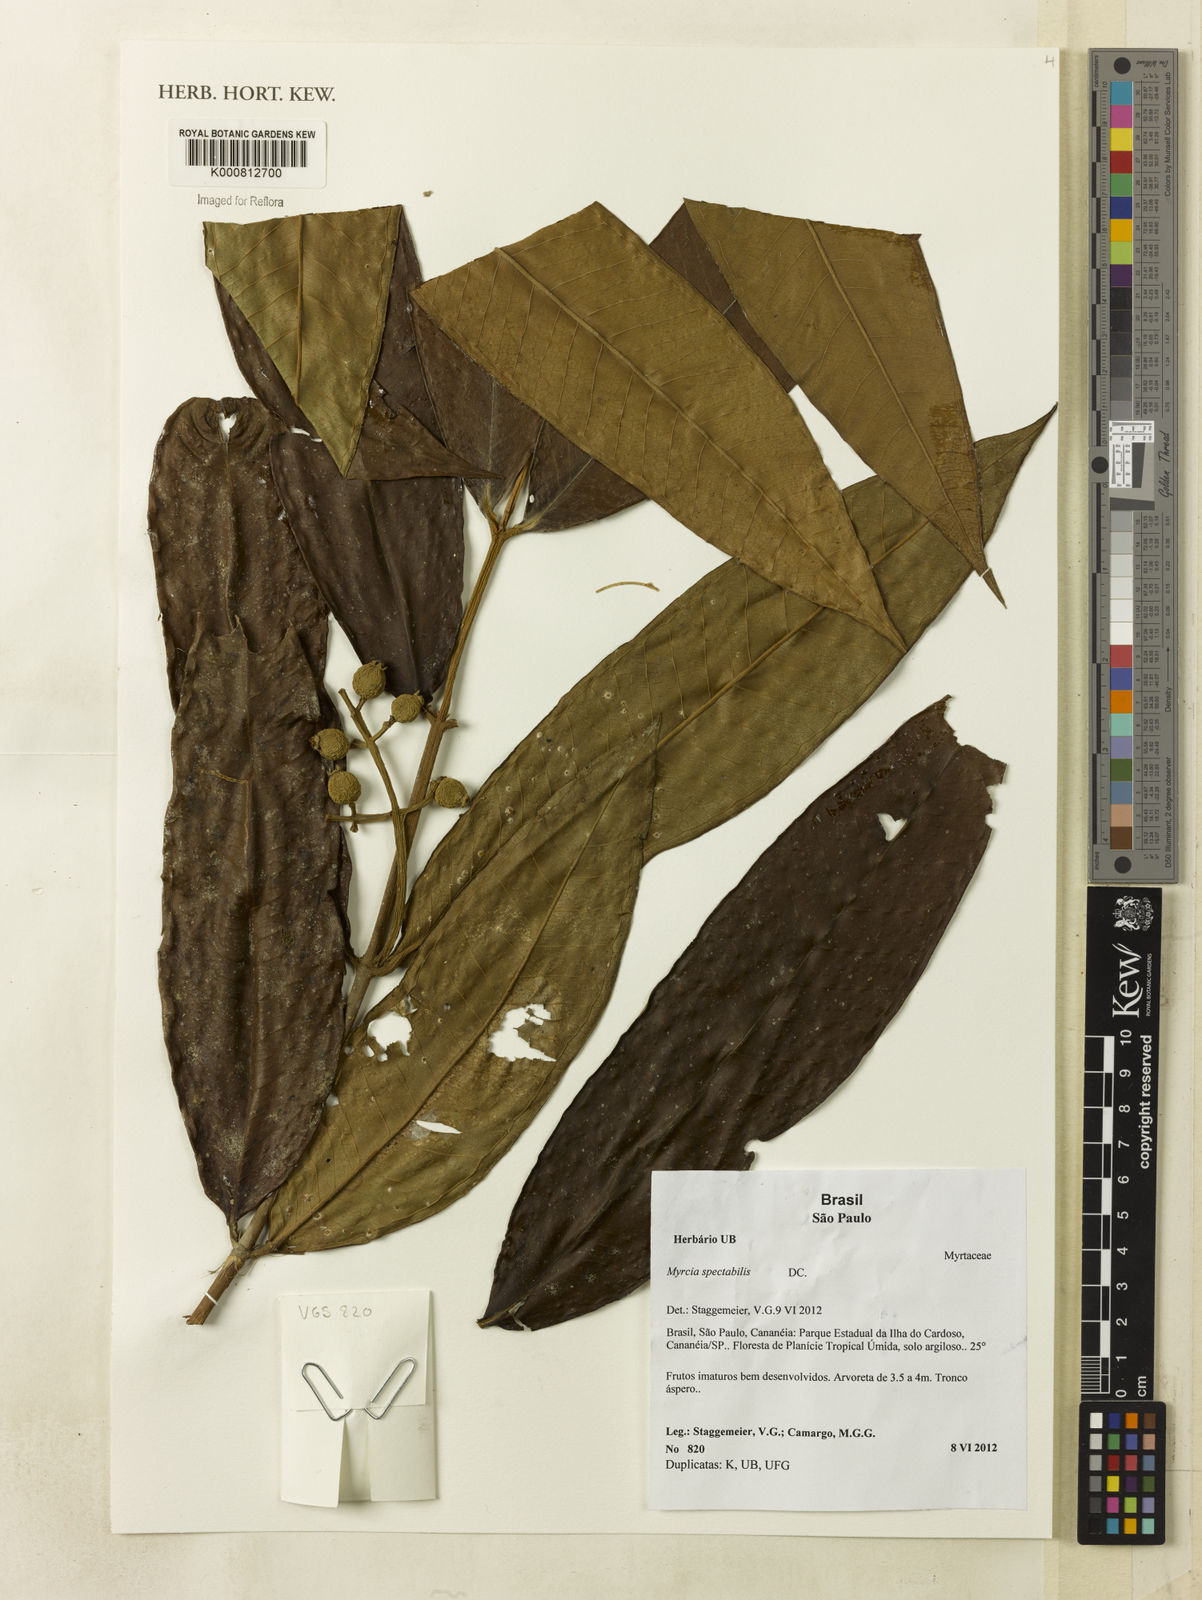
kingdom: Plantae
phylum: Tracheophyta
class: Magnoliopsida
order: Myrtales
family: Myrtaceae
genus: Myrcia
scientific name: Myrcia spectabilis
